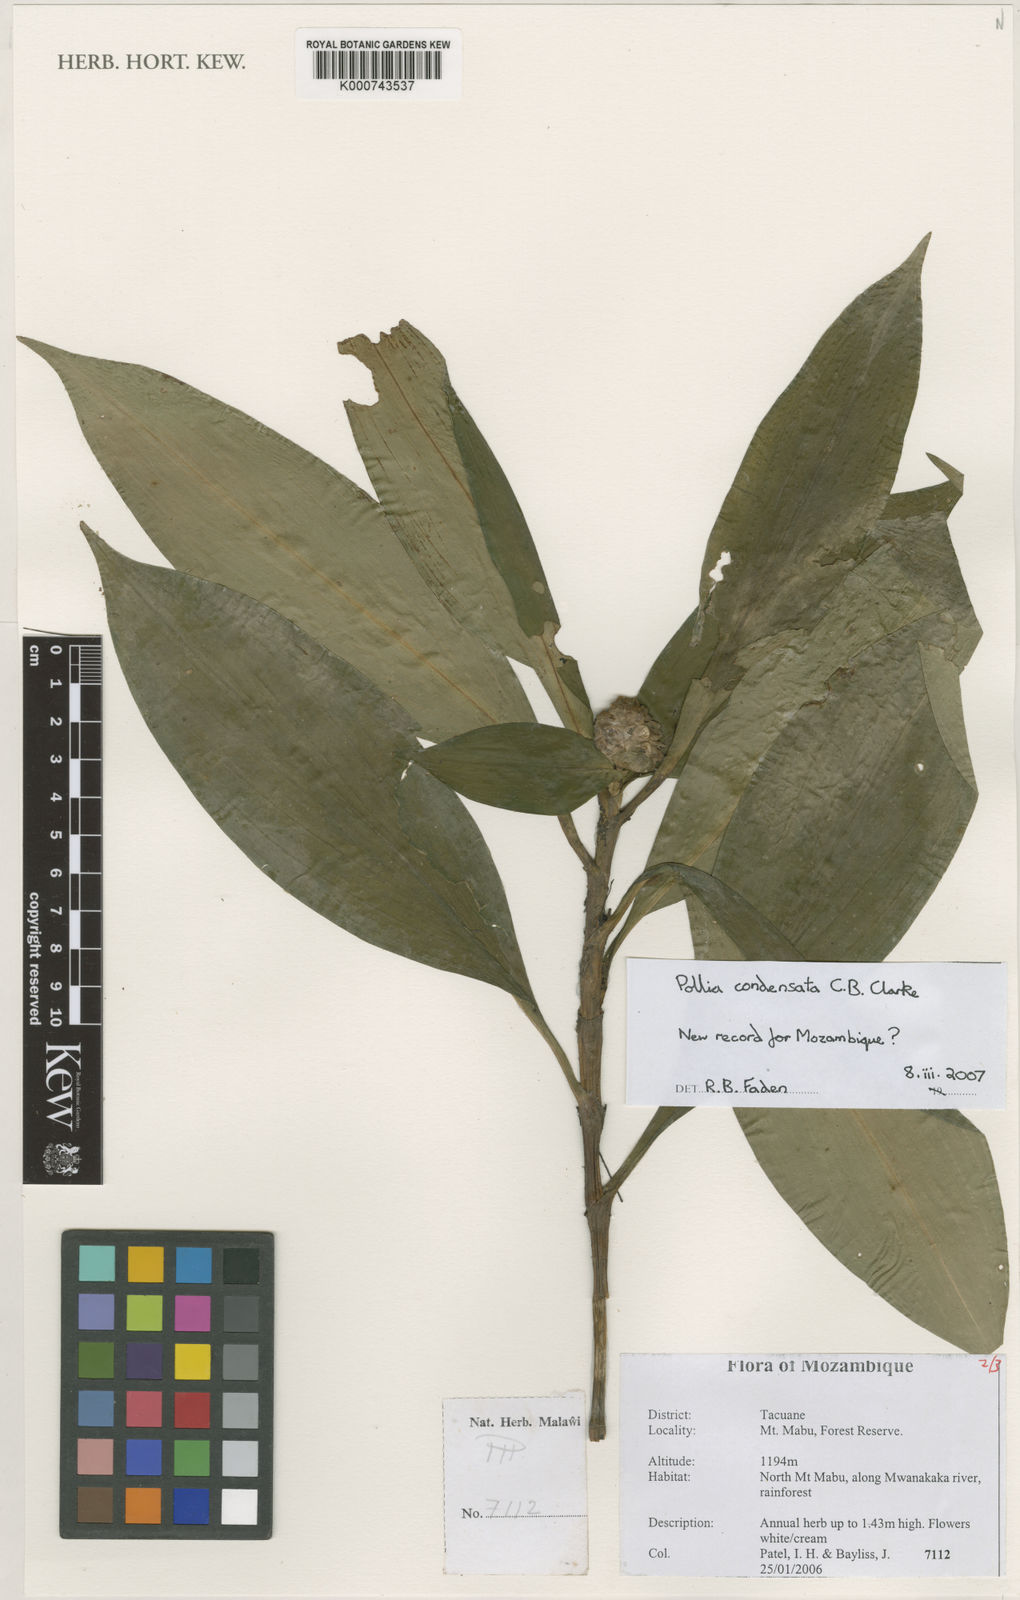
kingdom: Plantae
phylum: Tracheophyta
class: Liliopsida
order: Commelinales
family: Commelinaceae
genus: Pollia
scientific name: Pollia condensata
